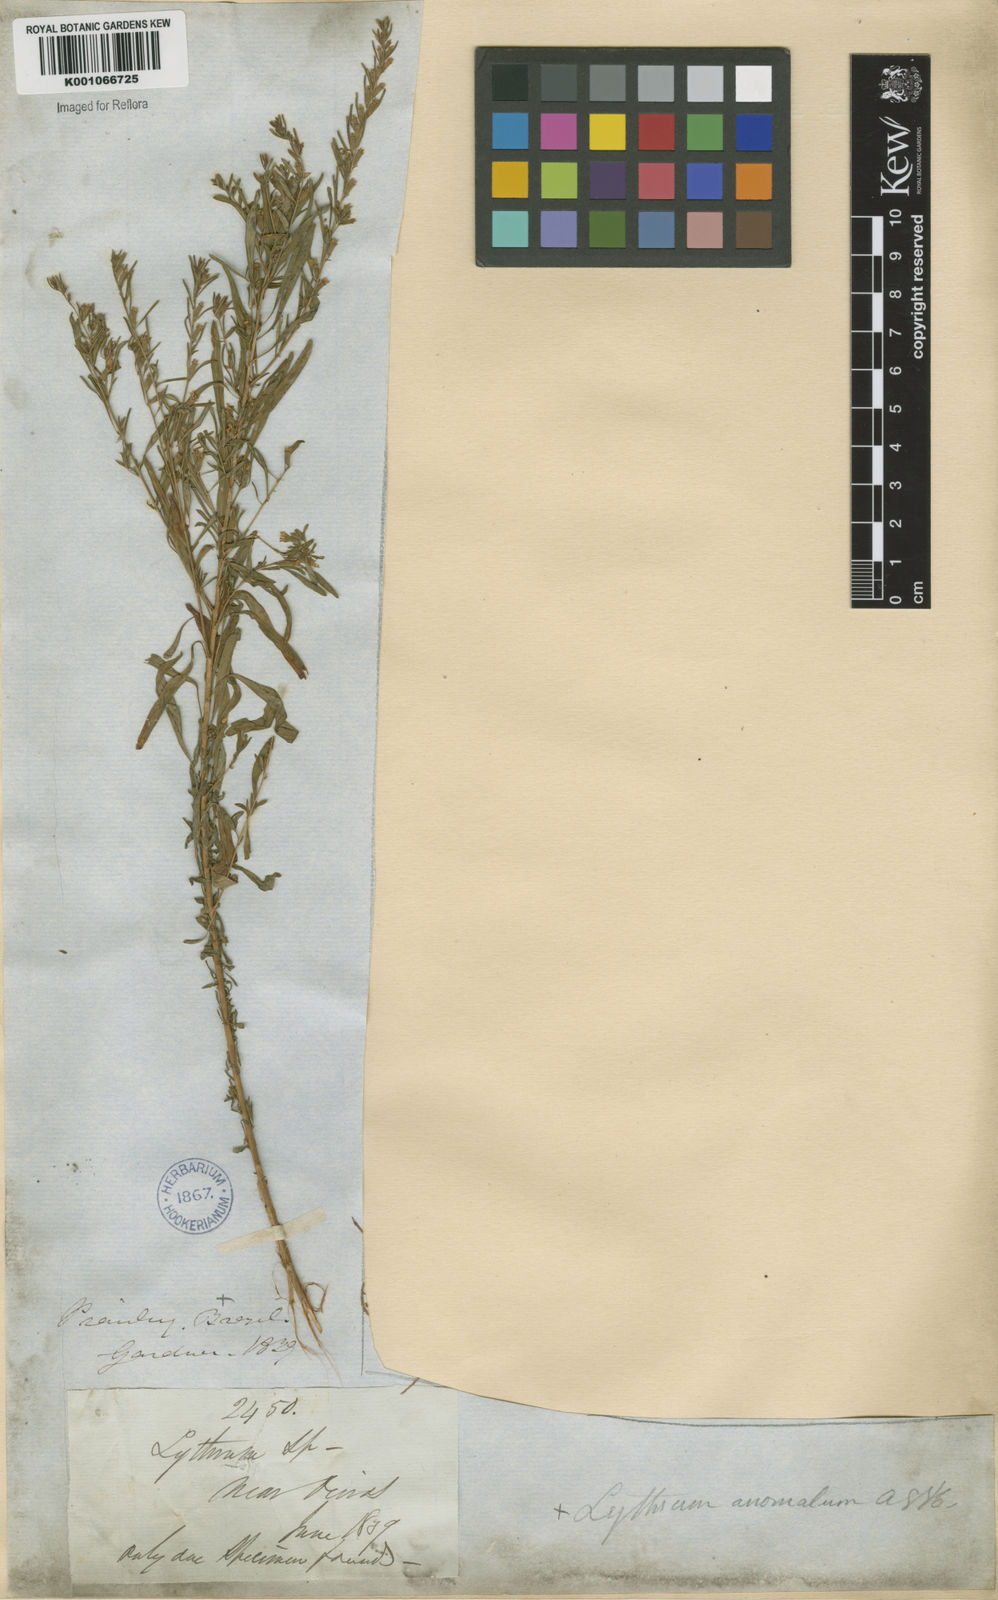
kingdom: Plantae
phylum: Tracheophyta
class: Magnoliopsida
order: Myrtales
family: Lythraceae
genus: Pleurophora
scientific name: Pleurophora anomala
